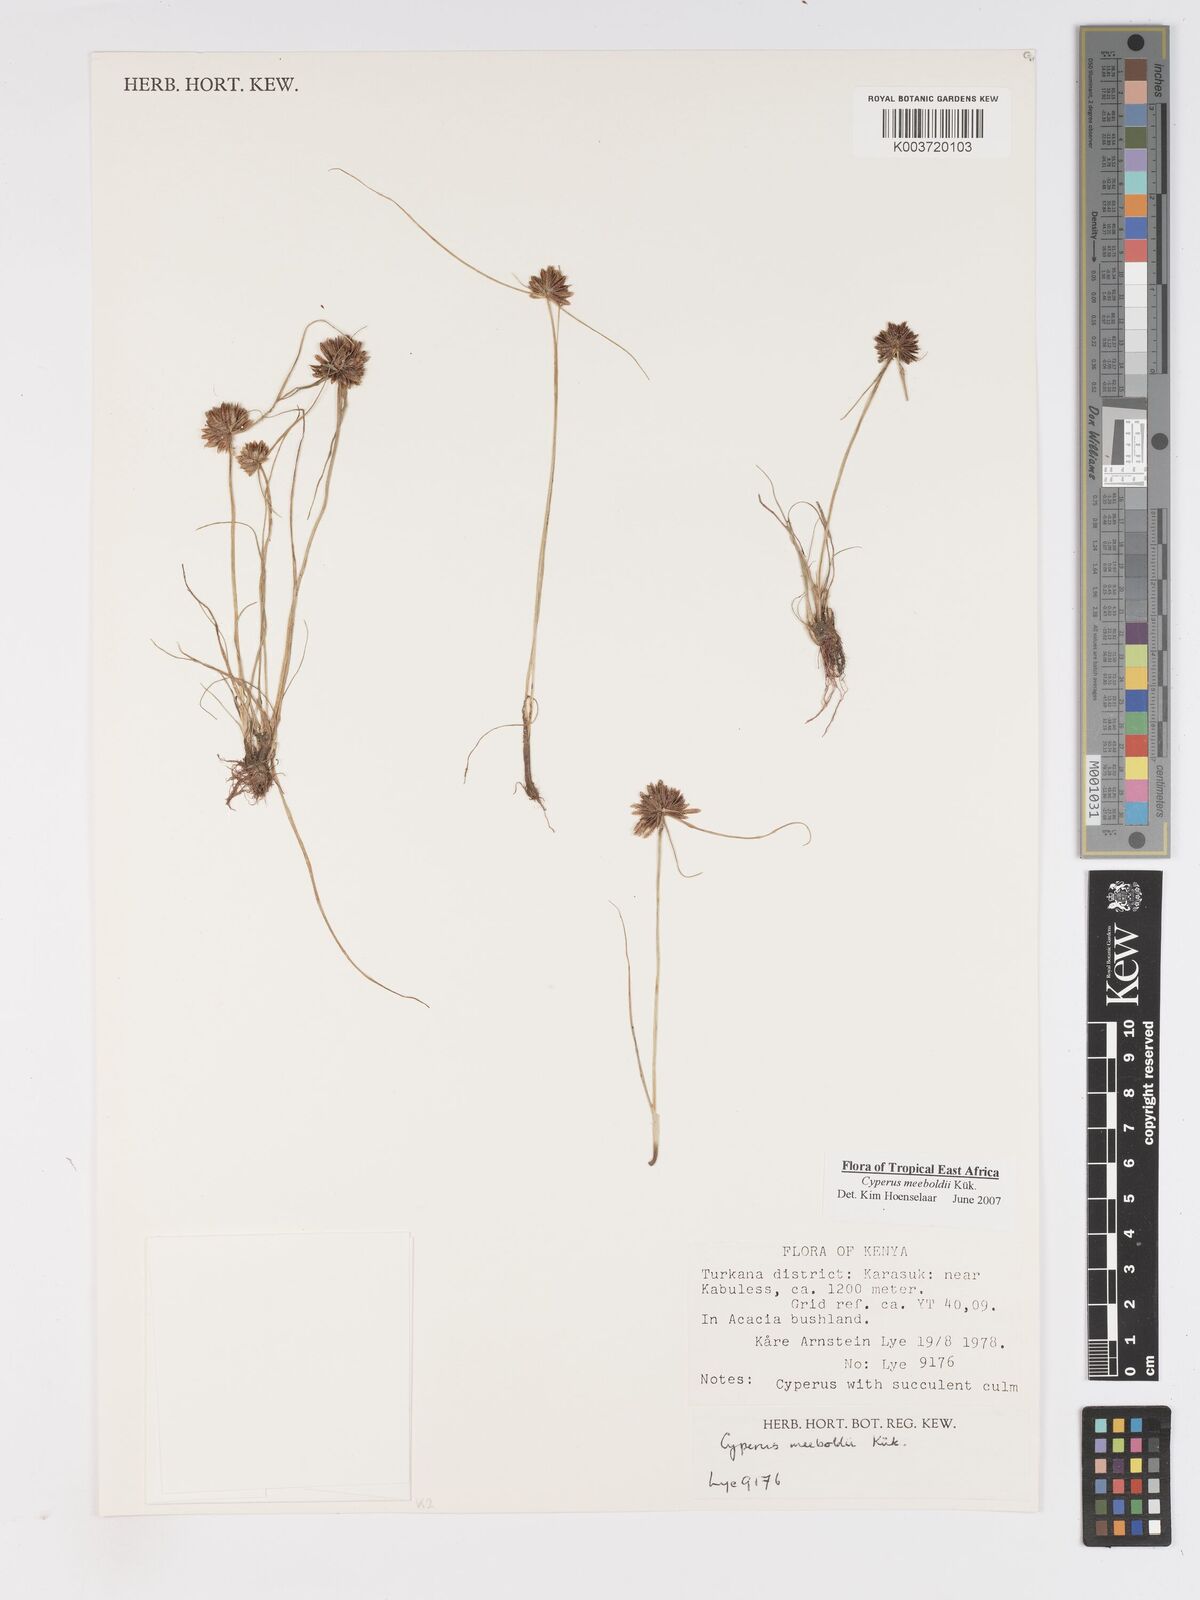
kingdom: Plantae
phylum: Tracheophyta
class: Liliopsida
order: Poales
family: Cyperaceae
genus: Cyperus
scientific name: Cyperus meeboldii
